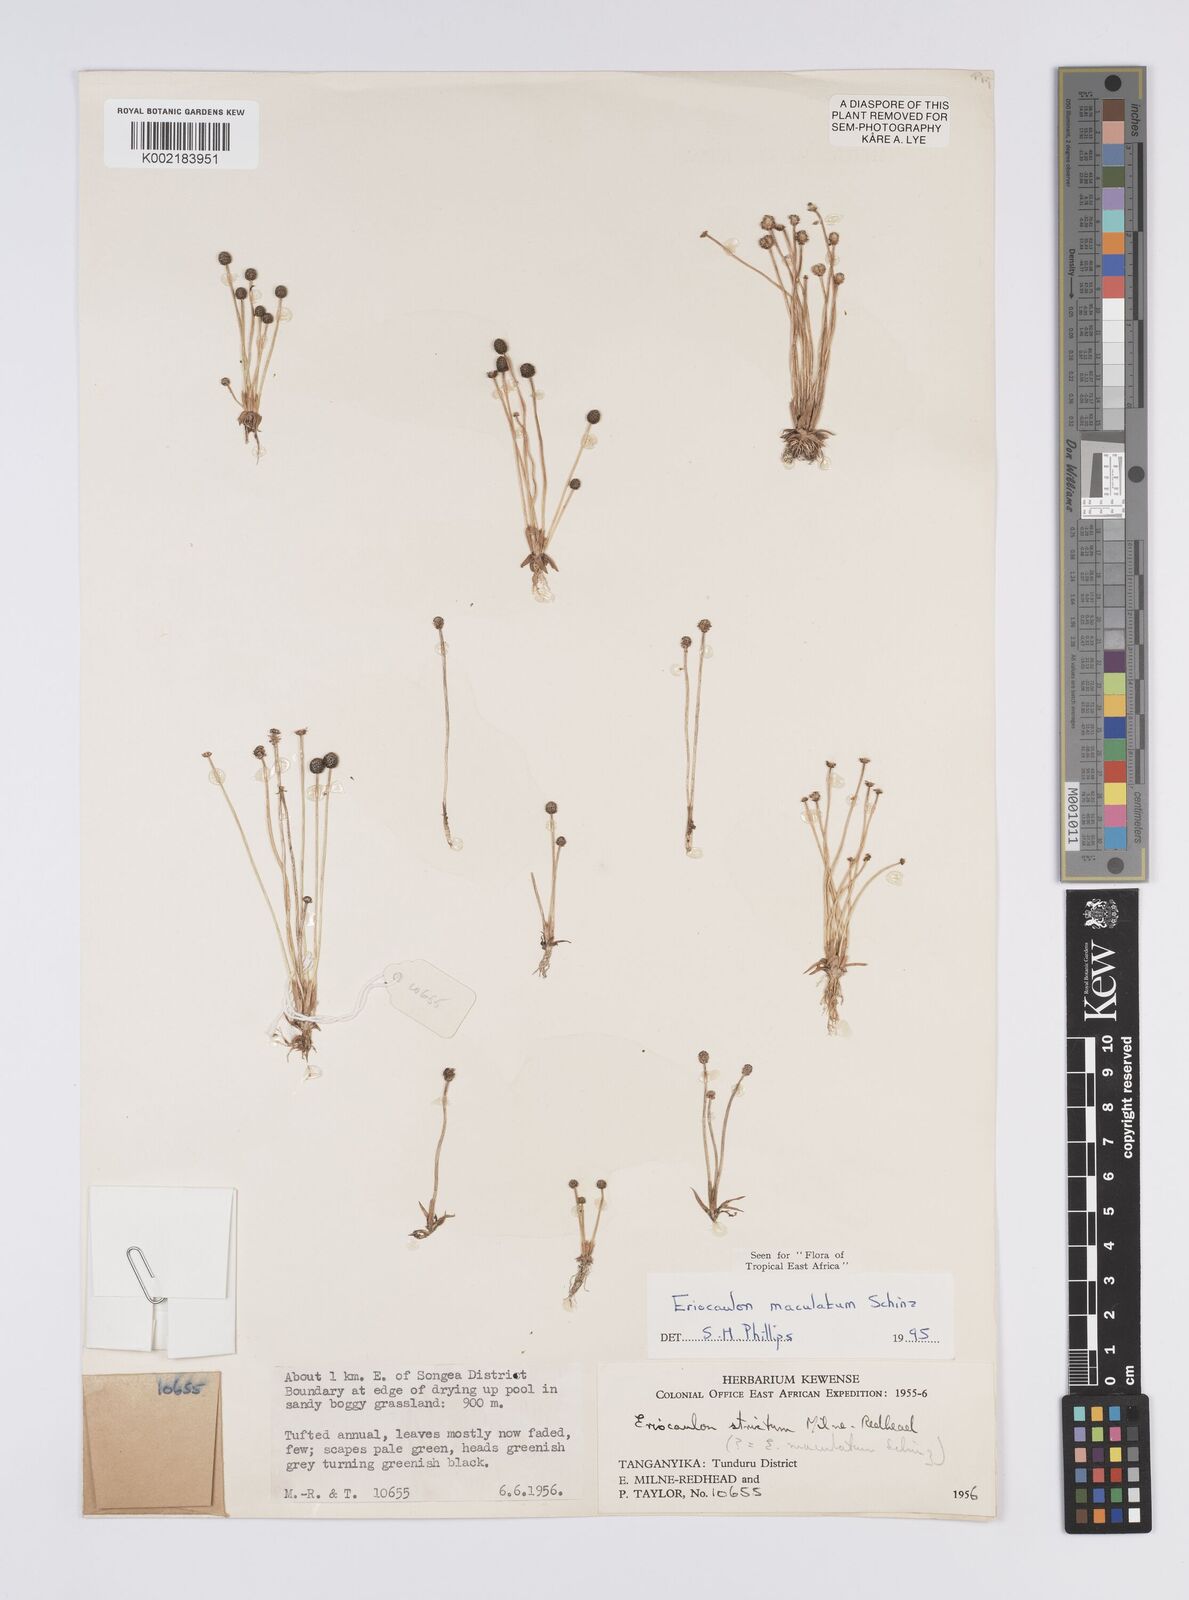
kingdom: Plantae
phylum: Tracheophyta
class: Liliopsida
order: Poales
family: Eriocaulaceae
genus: Eriocaulon
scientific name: Eriocaulon maculatum
